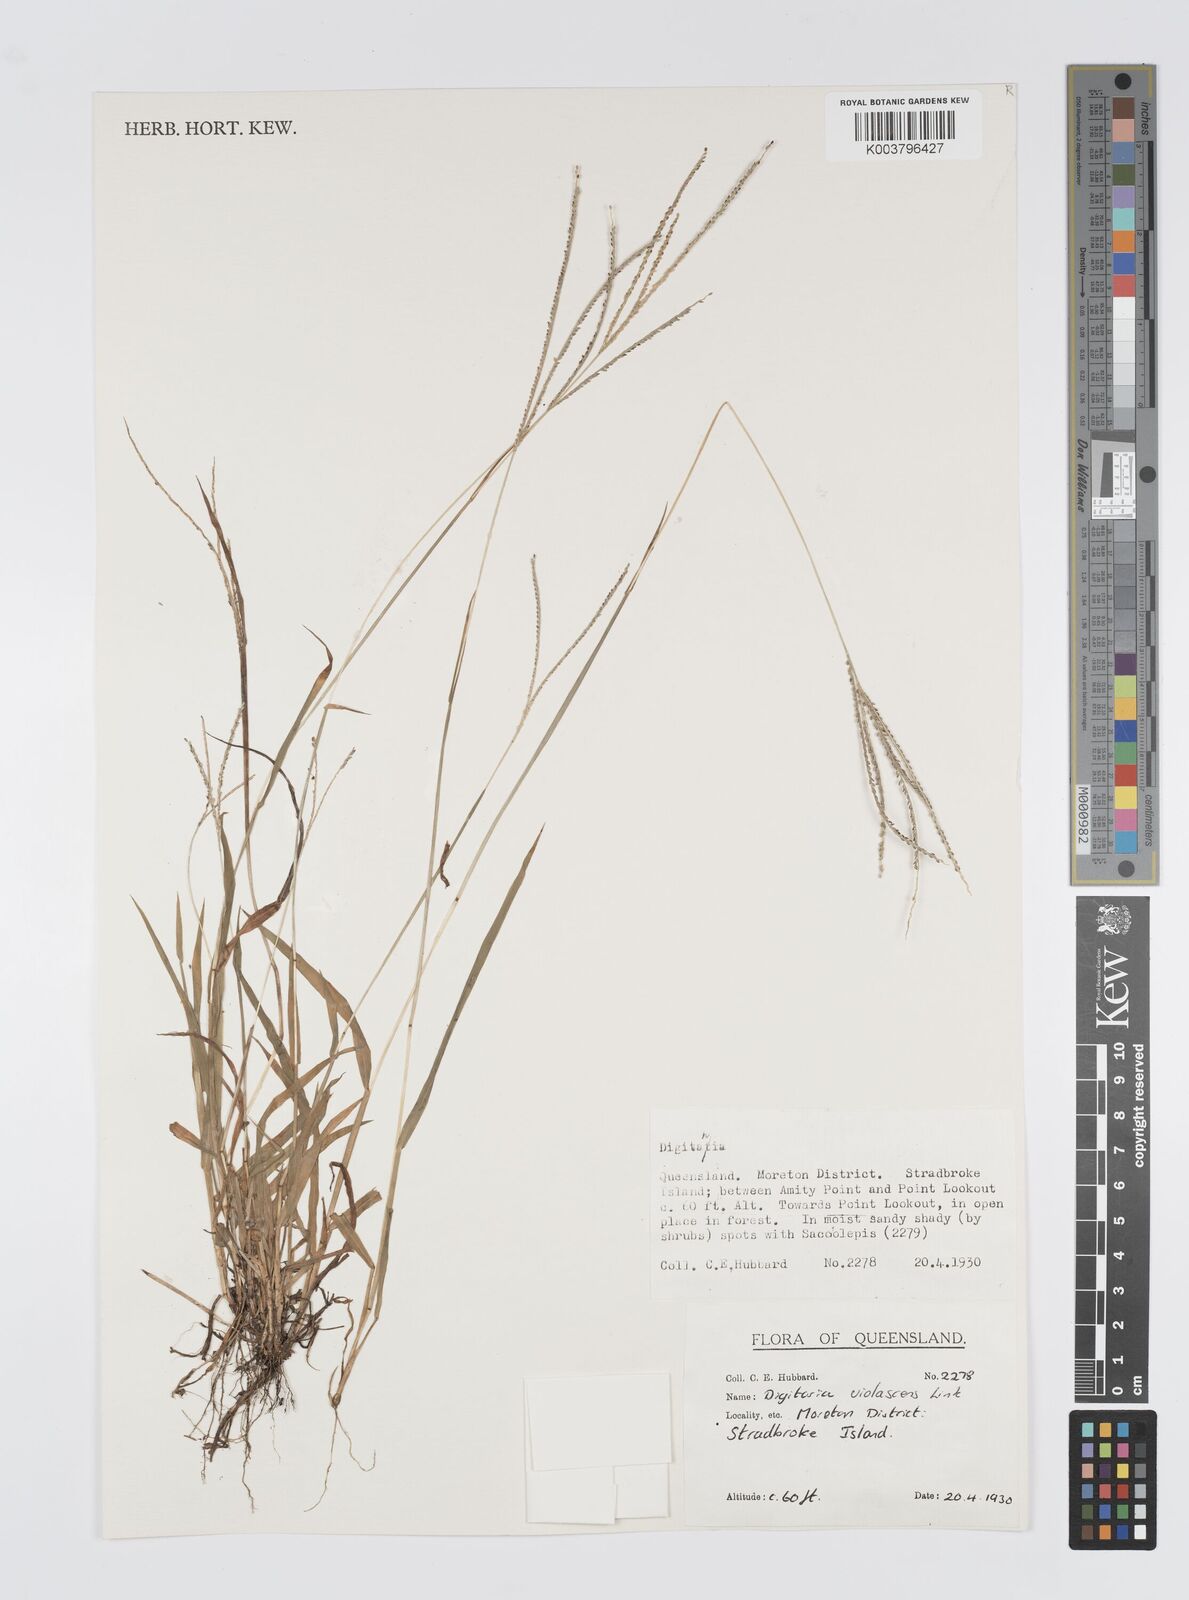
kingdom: Plantae
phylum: Tracheophyta
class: Liliopsida
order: Poales
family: Poaceae
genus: Digitaria
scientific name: Digitaria violascens
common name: Violet crabgrass
